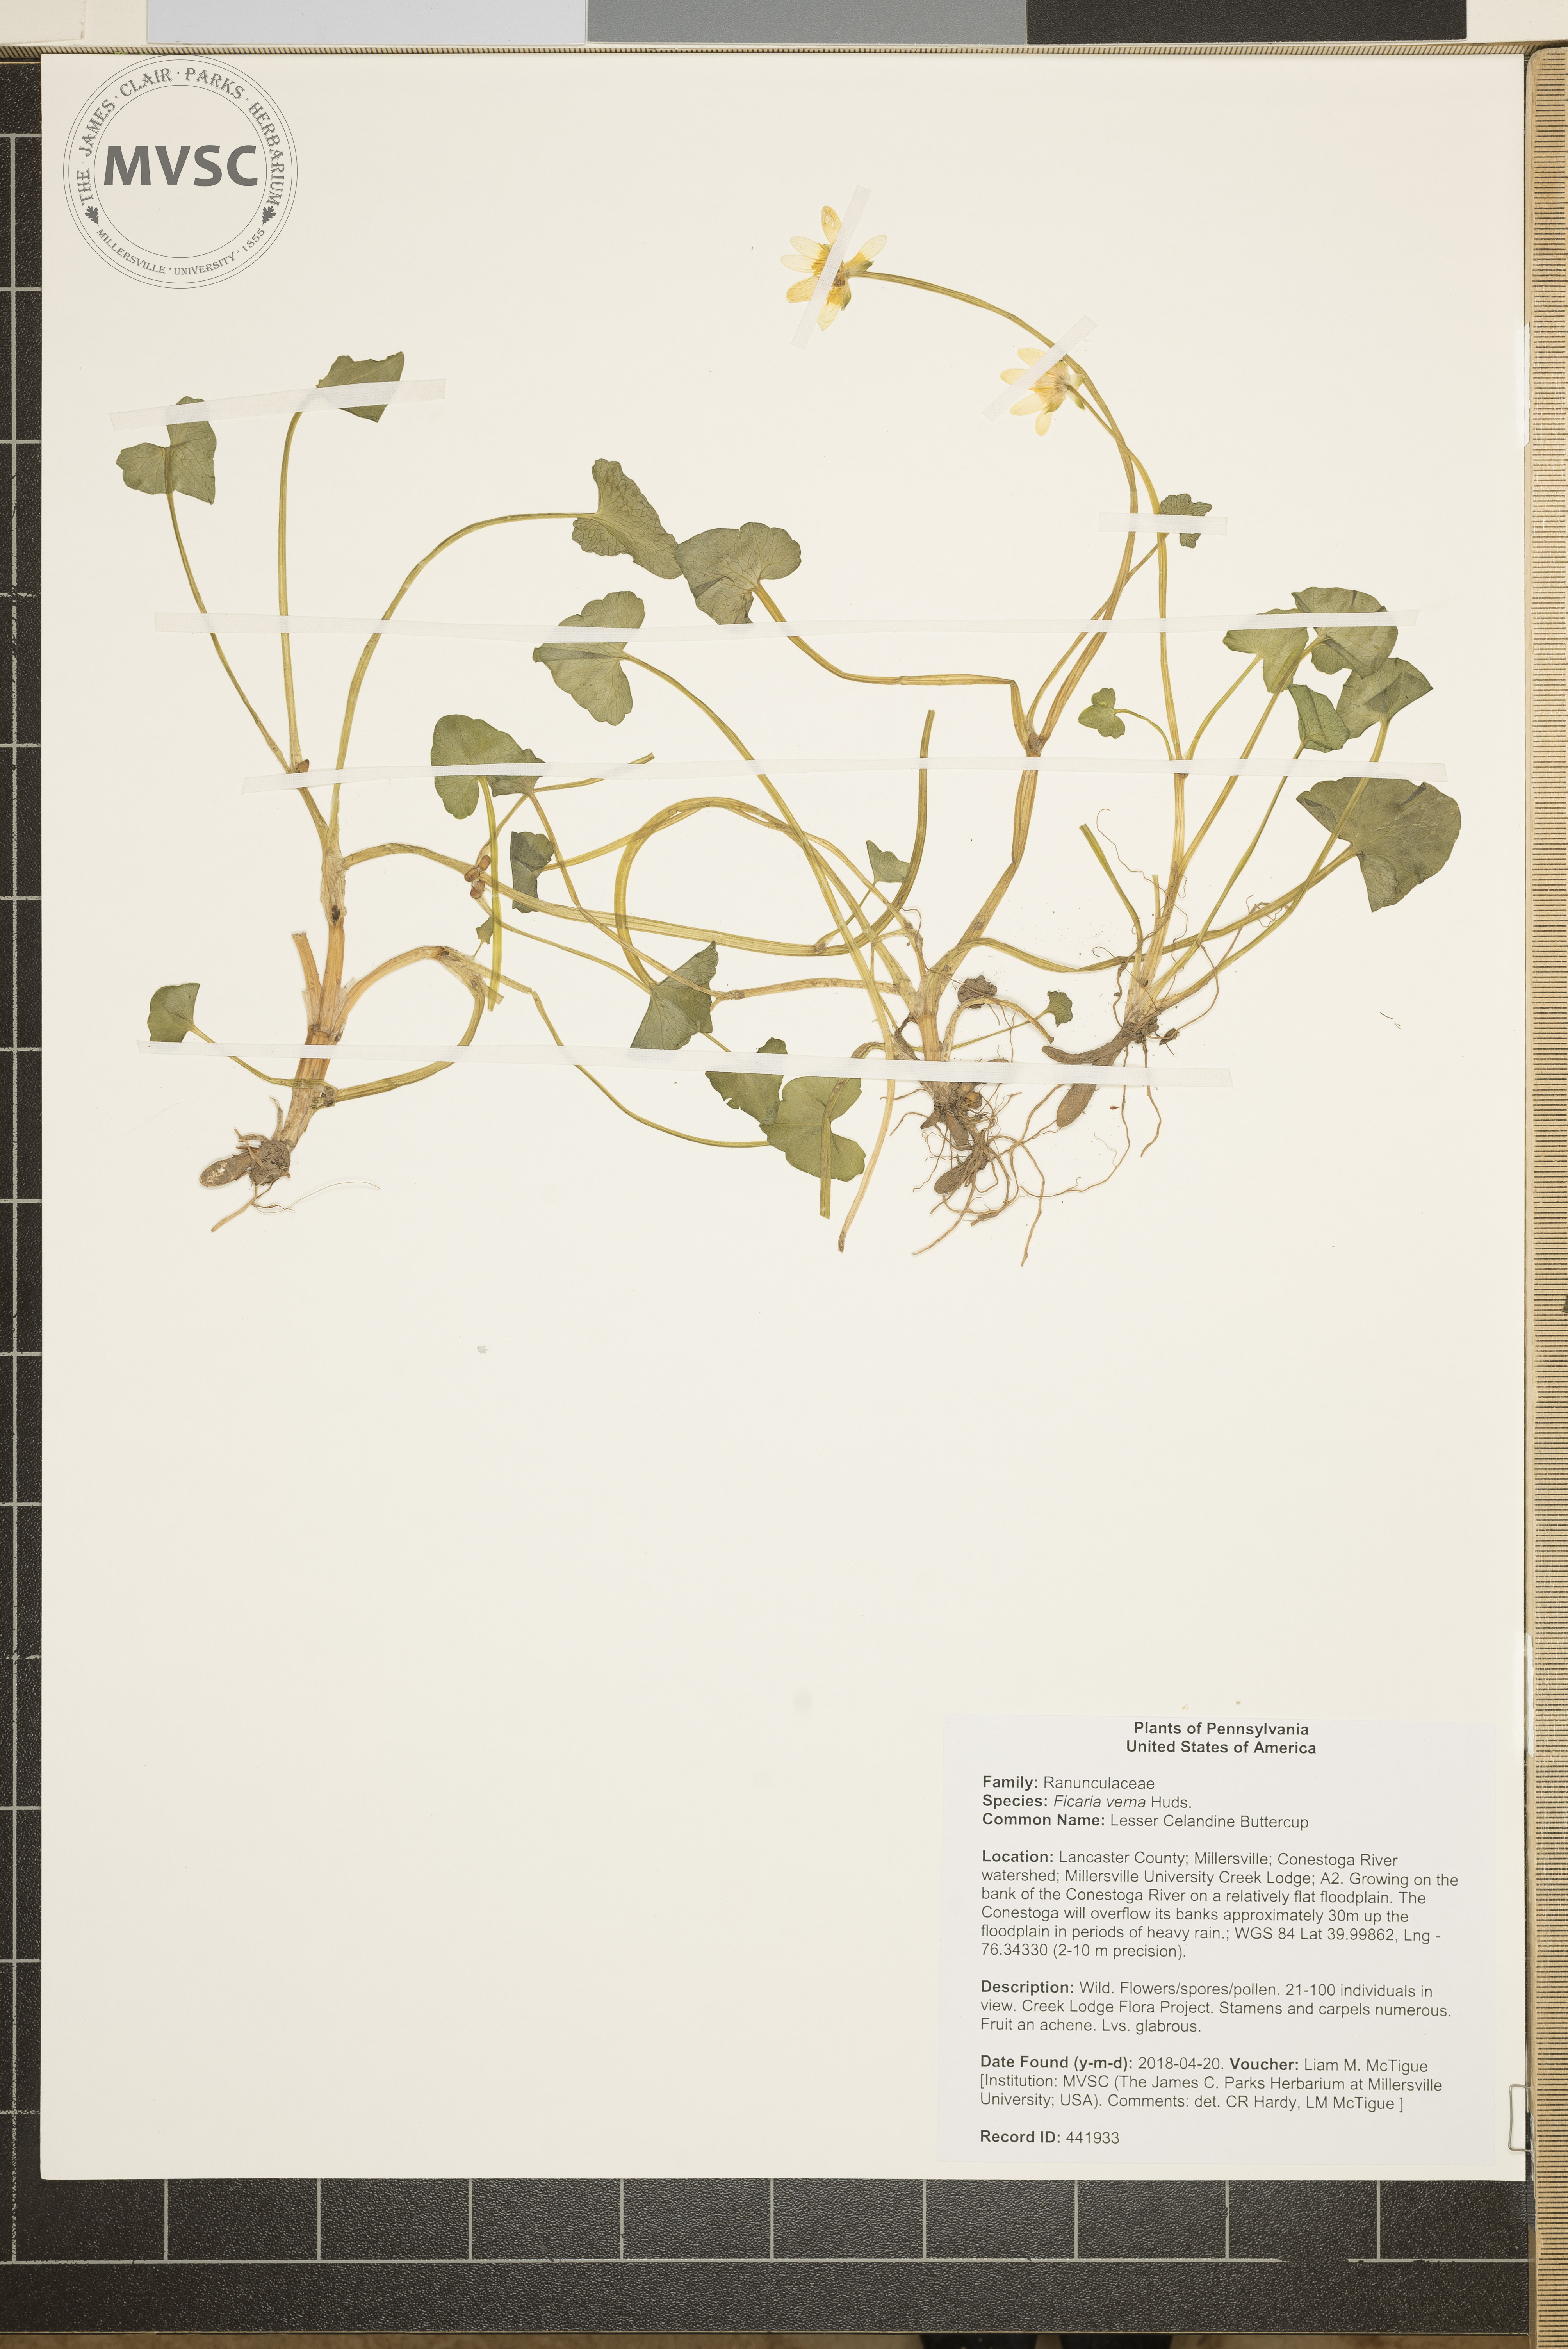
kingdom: Plantae
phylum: Tracheophyta
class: Magnoliopsida
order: Ranunculales
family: Ranunculaceae
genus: Ficaria
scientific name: Ficaria verna
